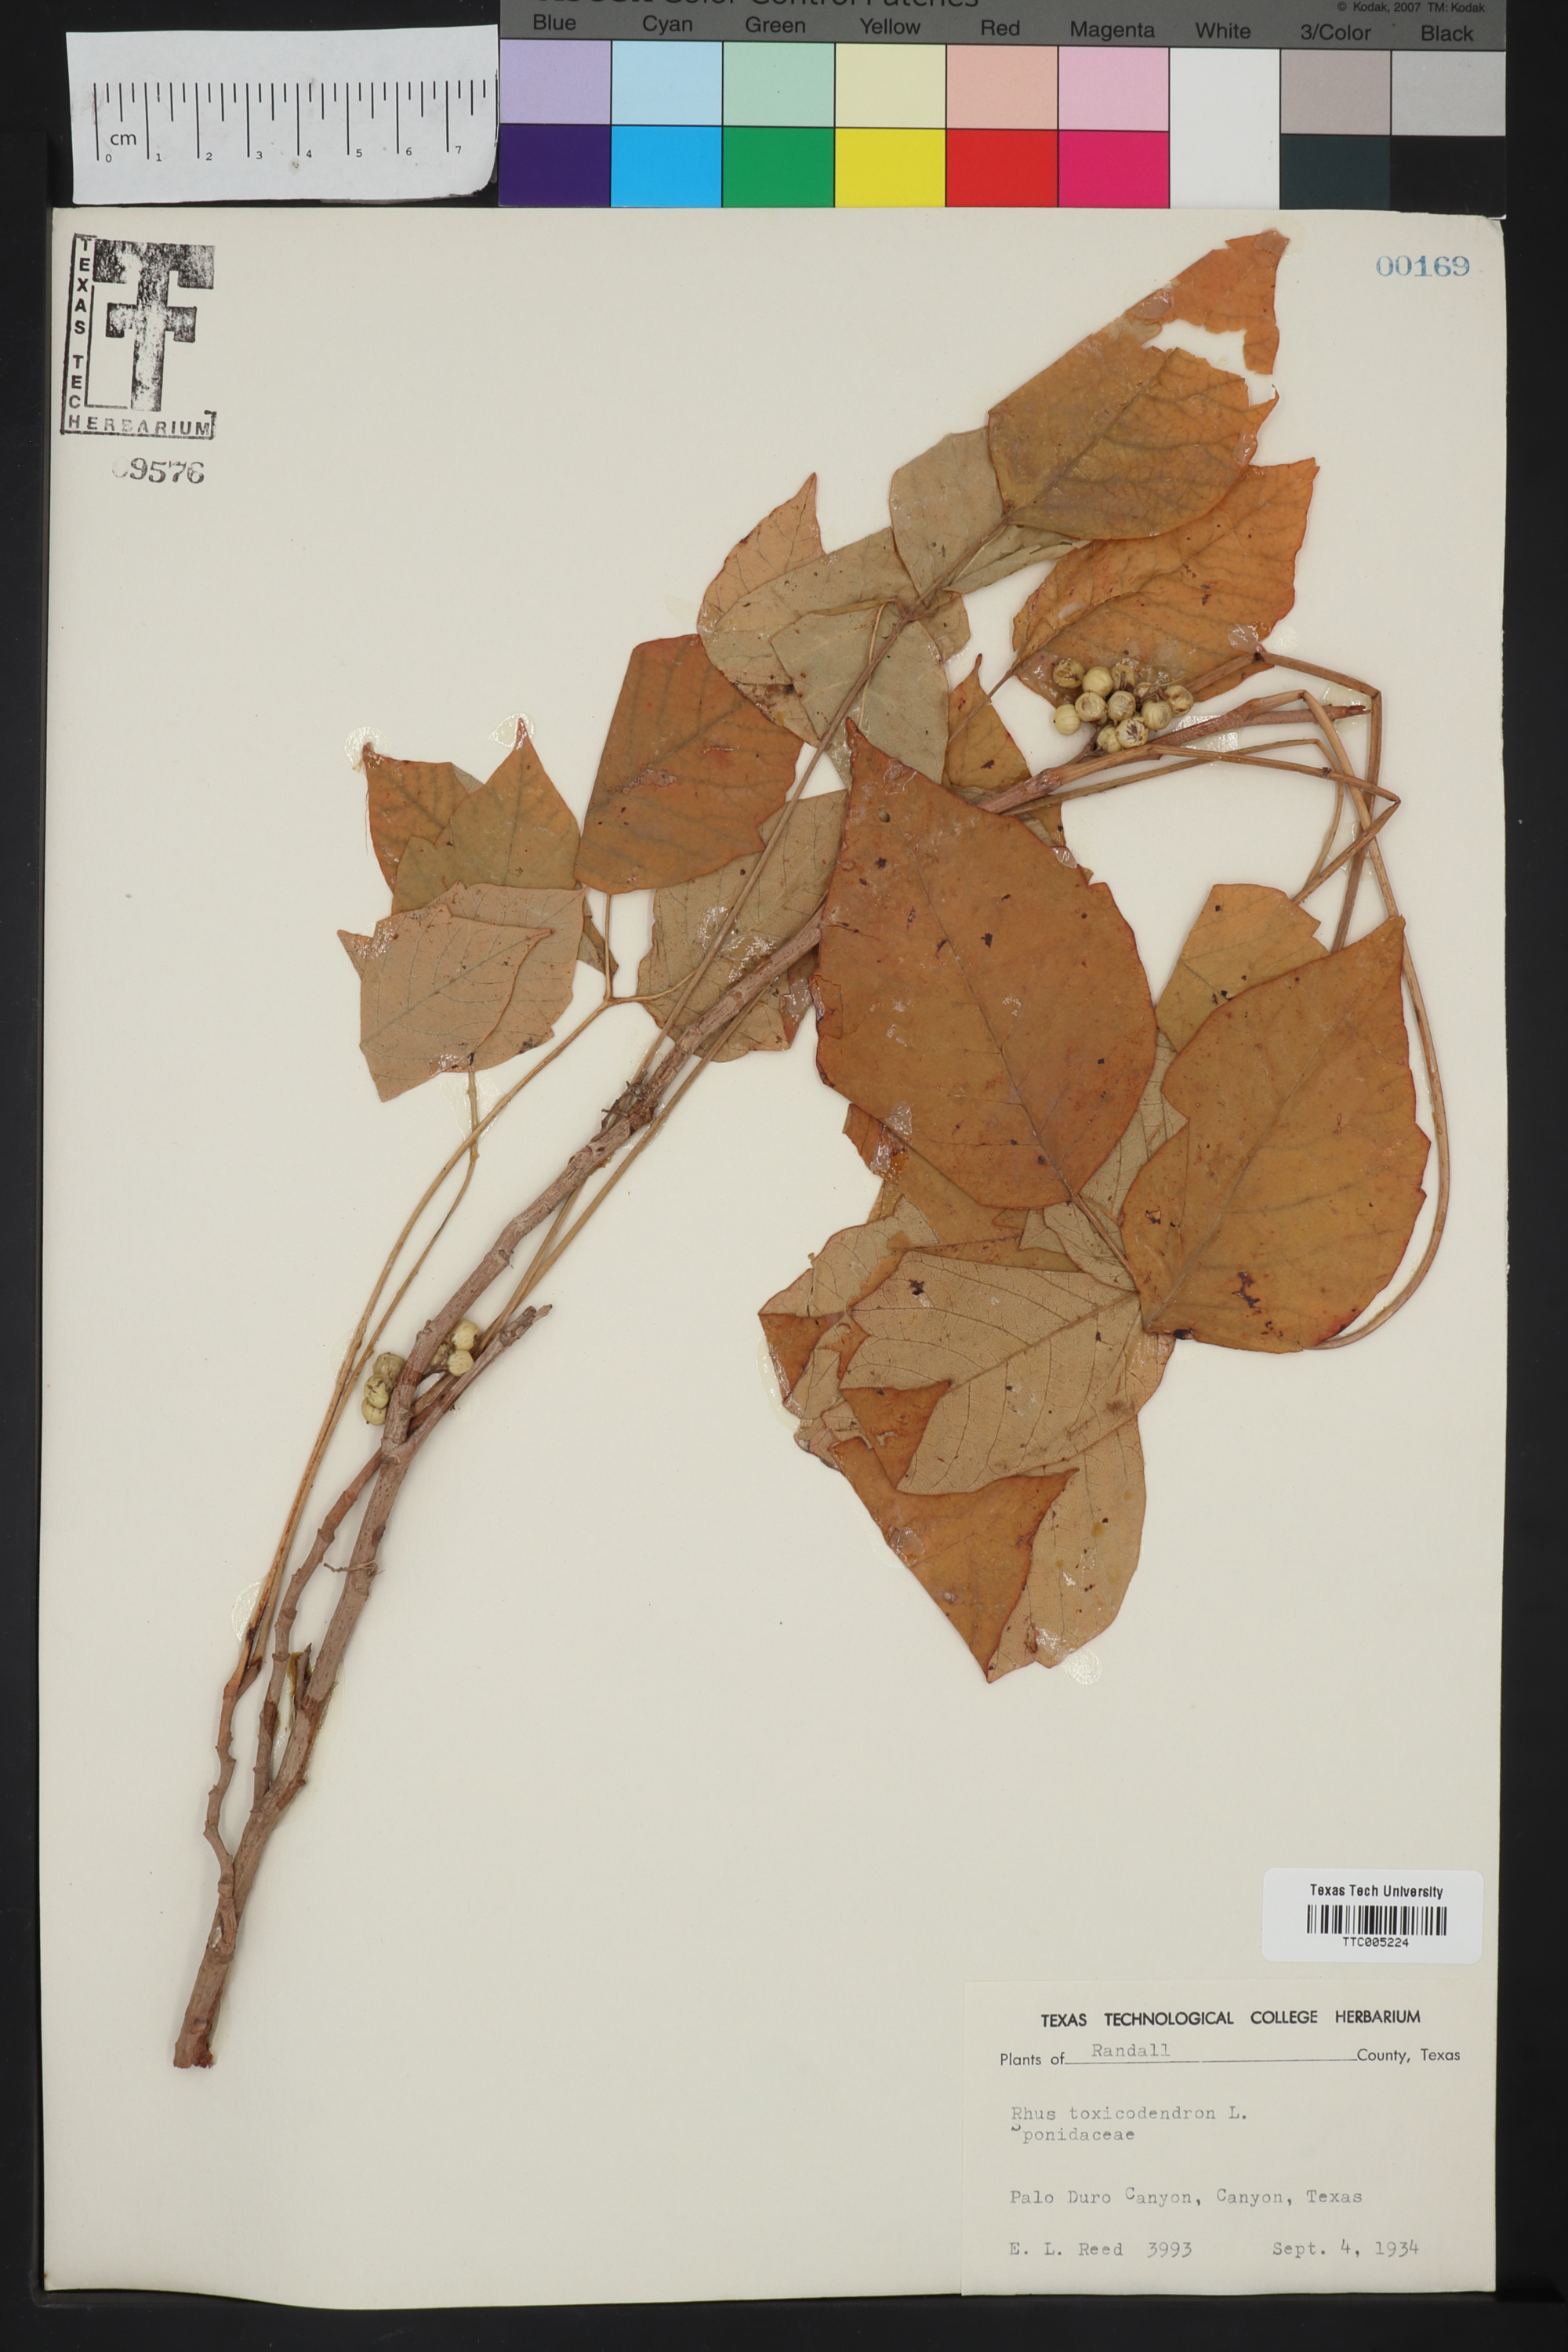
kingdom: Plantae
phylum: Tracheophyta
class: Magnoliopsida
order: Sapindales
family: Anacardiaceae
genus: Toxicodendron
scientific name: Toxicodendron
